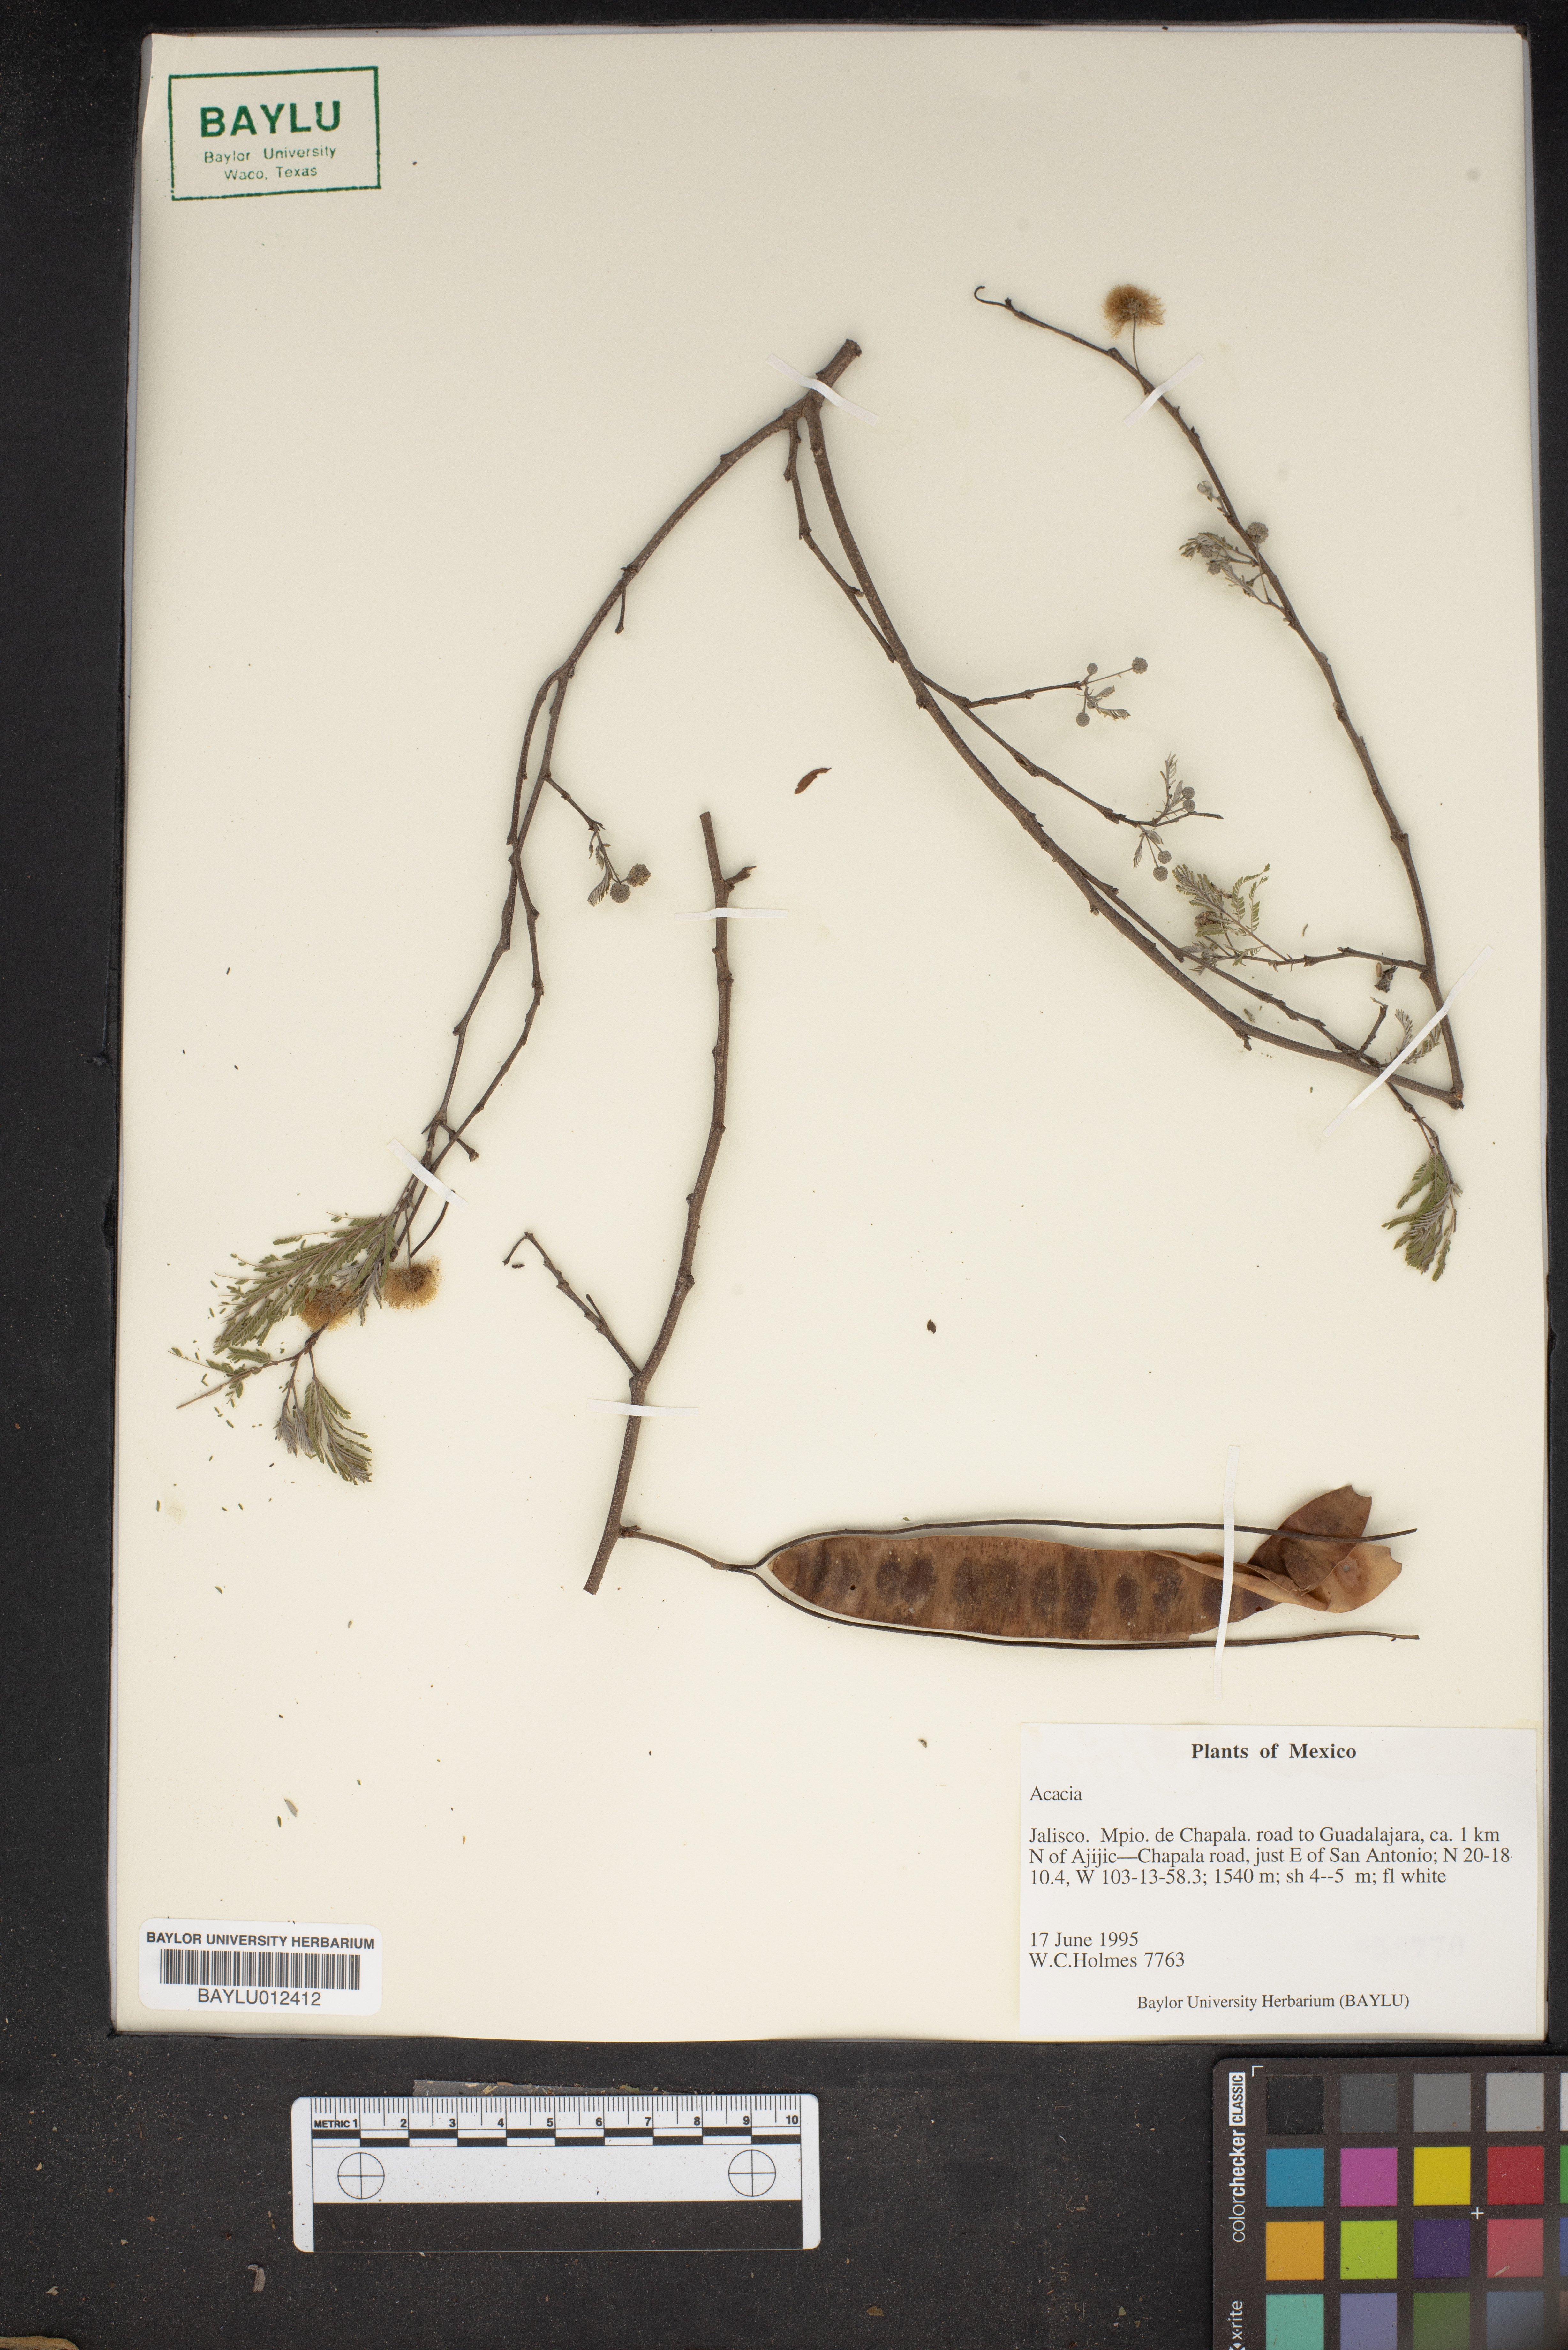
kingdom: Plantae
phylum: Tracheophyta
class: Magnoliopsida
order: Fabales
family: Fabaceae
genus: Acacia
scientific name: Acacia
